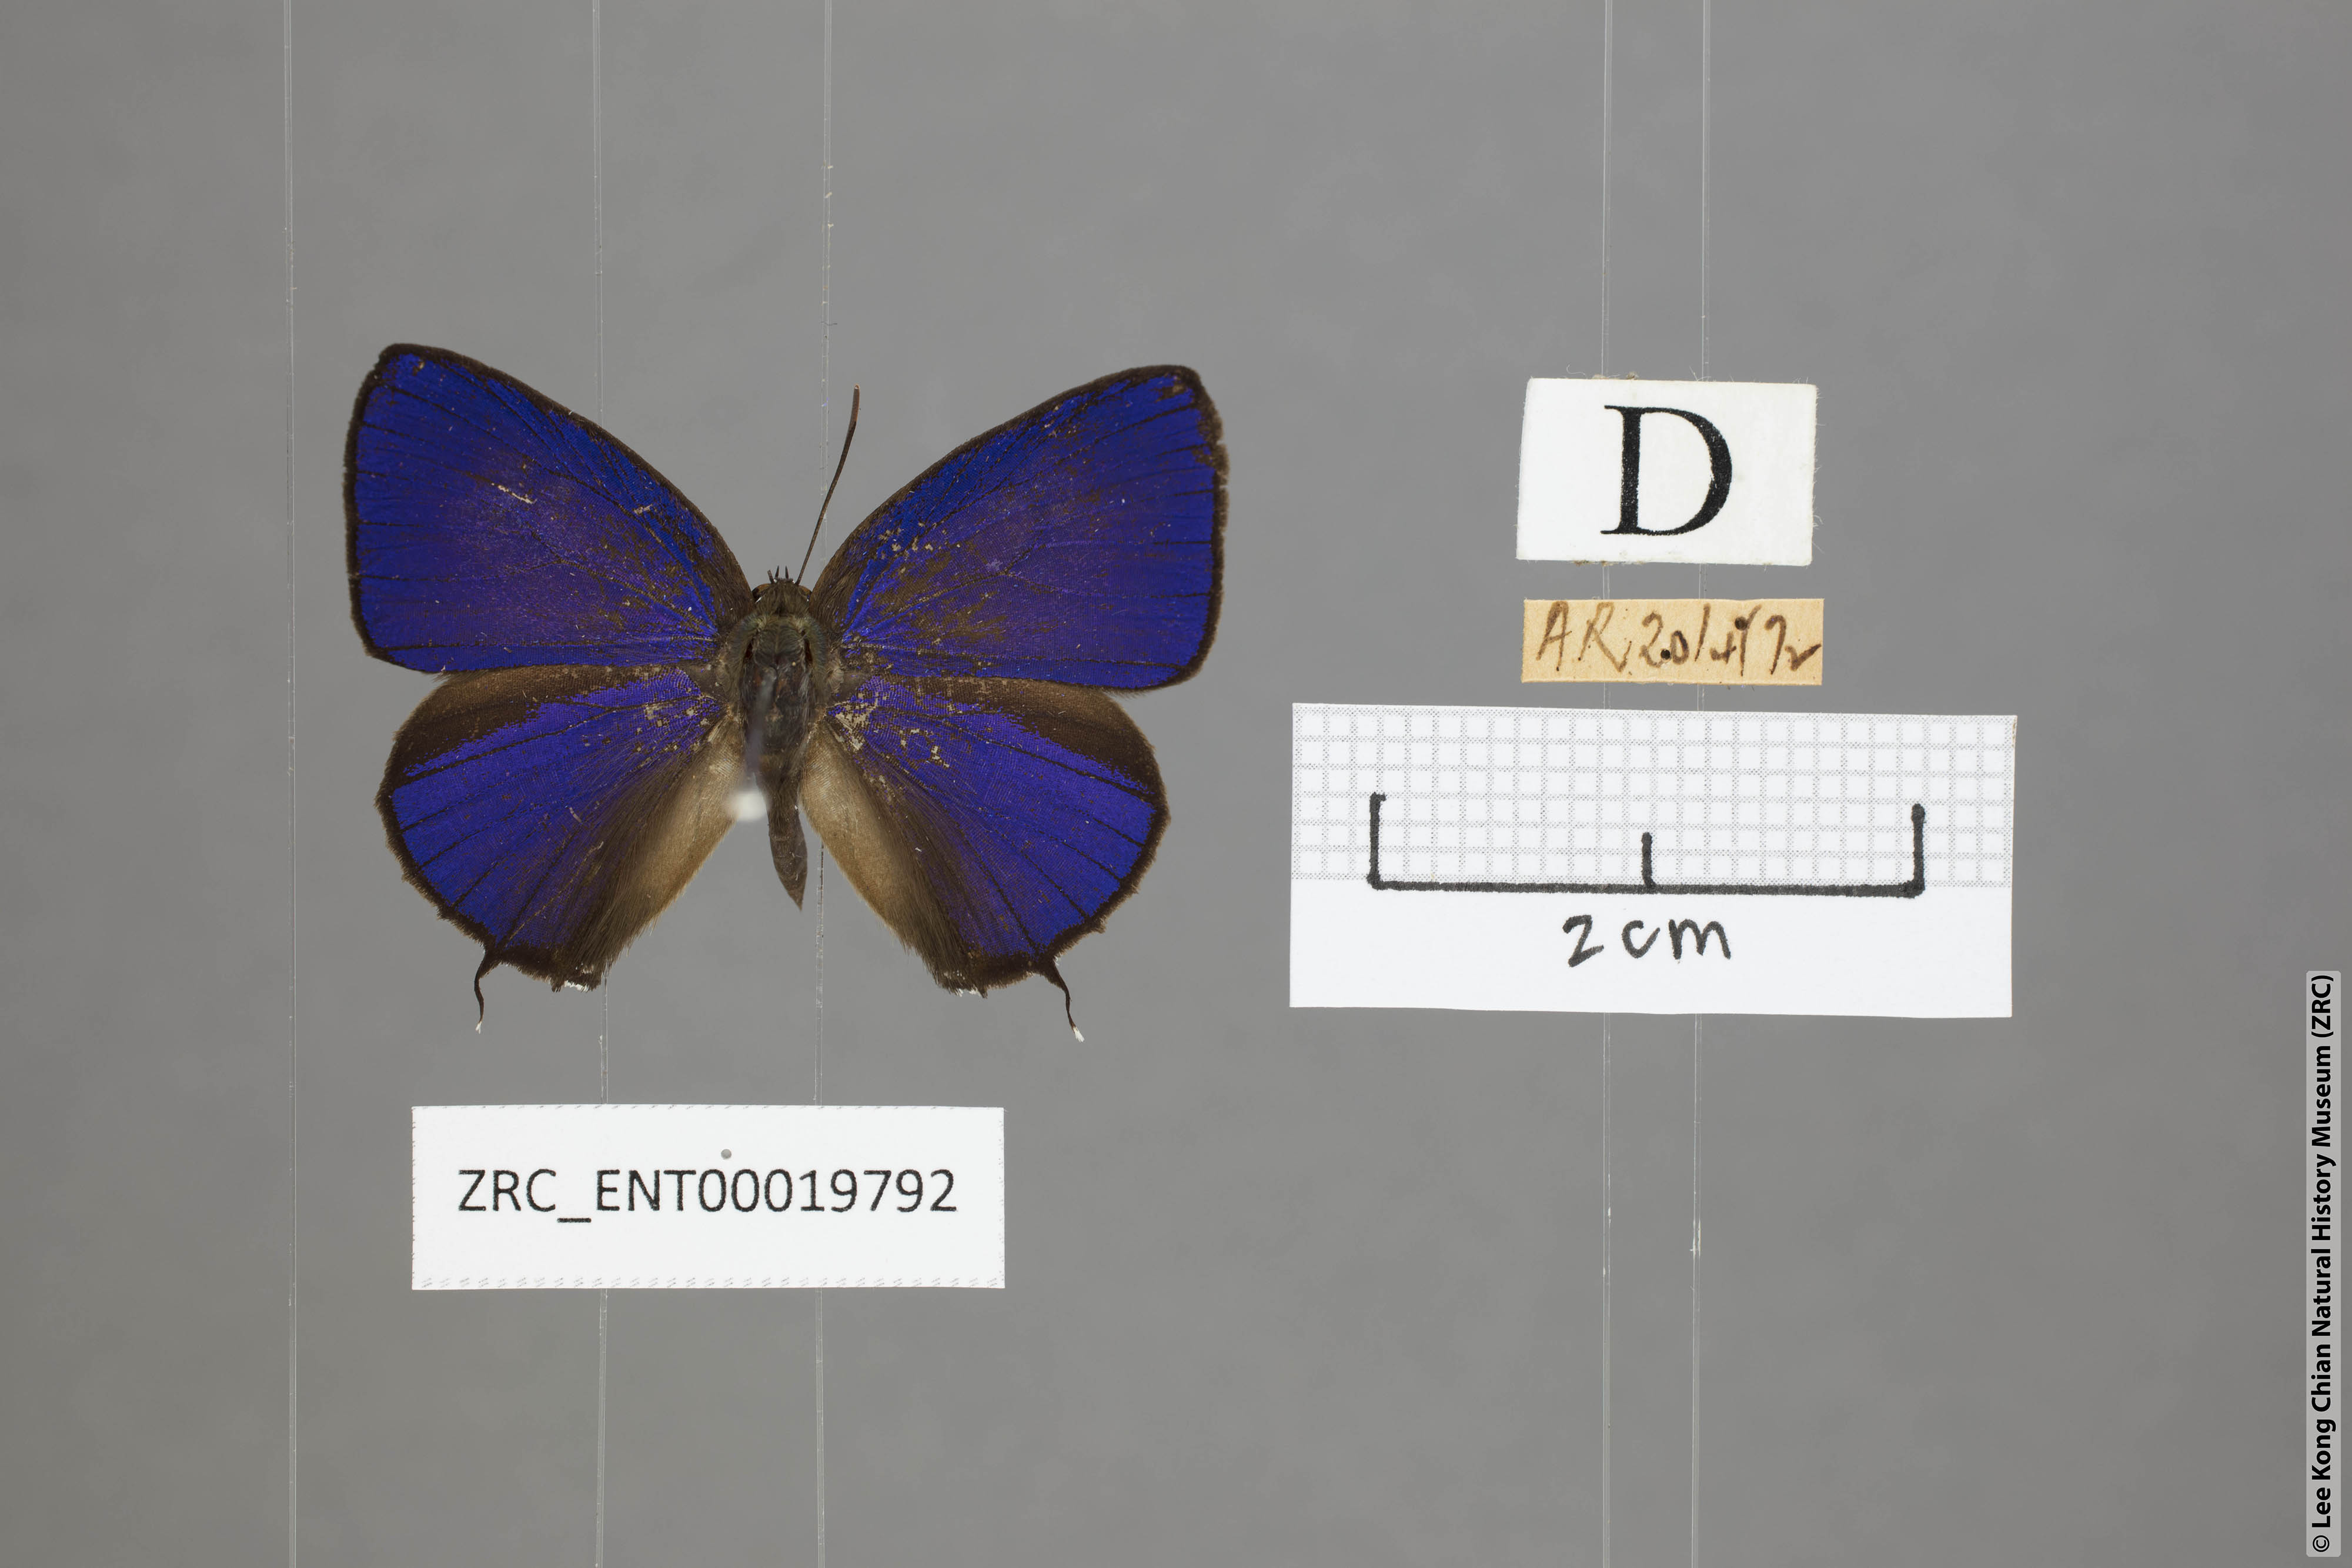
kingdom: Animalia
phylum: Arthropoda
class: Insecta
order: Lepidoptera
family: Lycaenidae
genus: Arhopala
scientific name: Arhopala phaenops
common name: Sumatran oakblue
